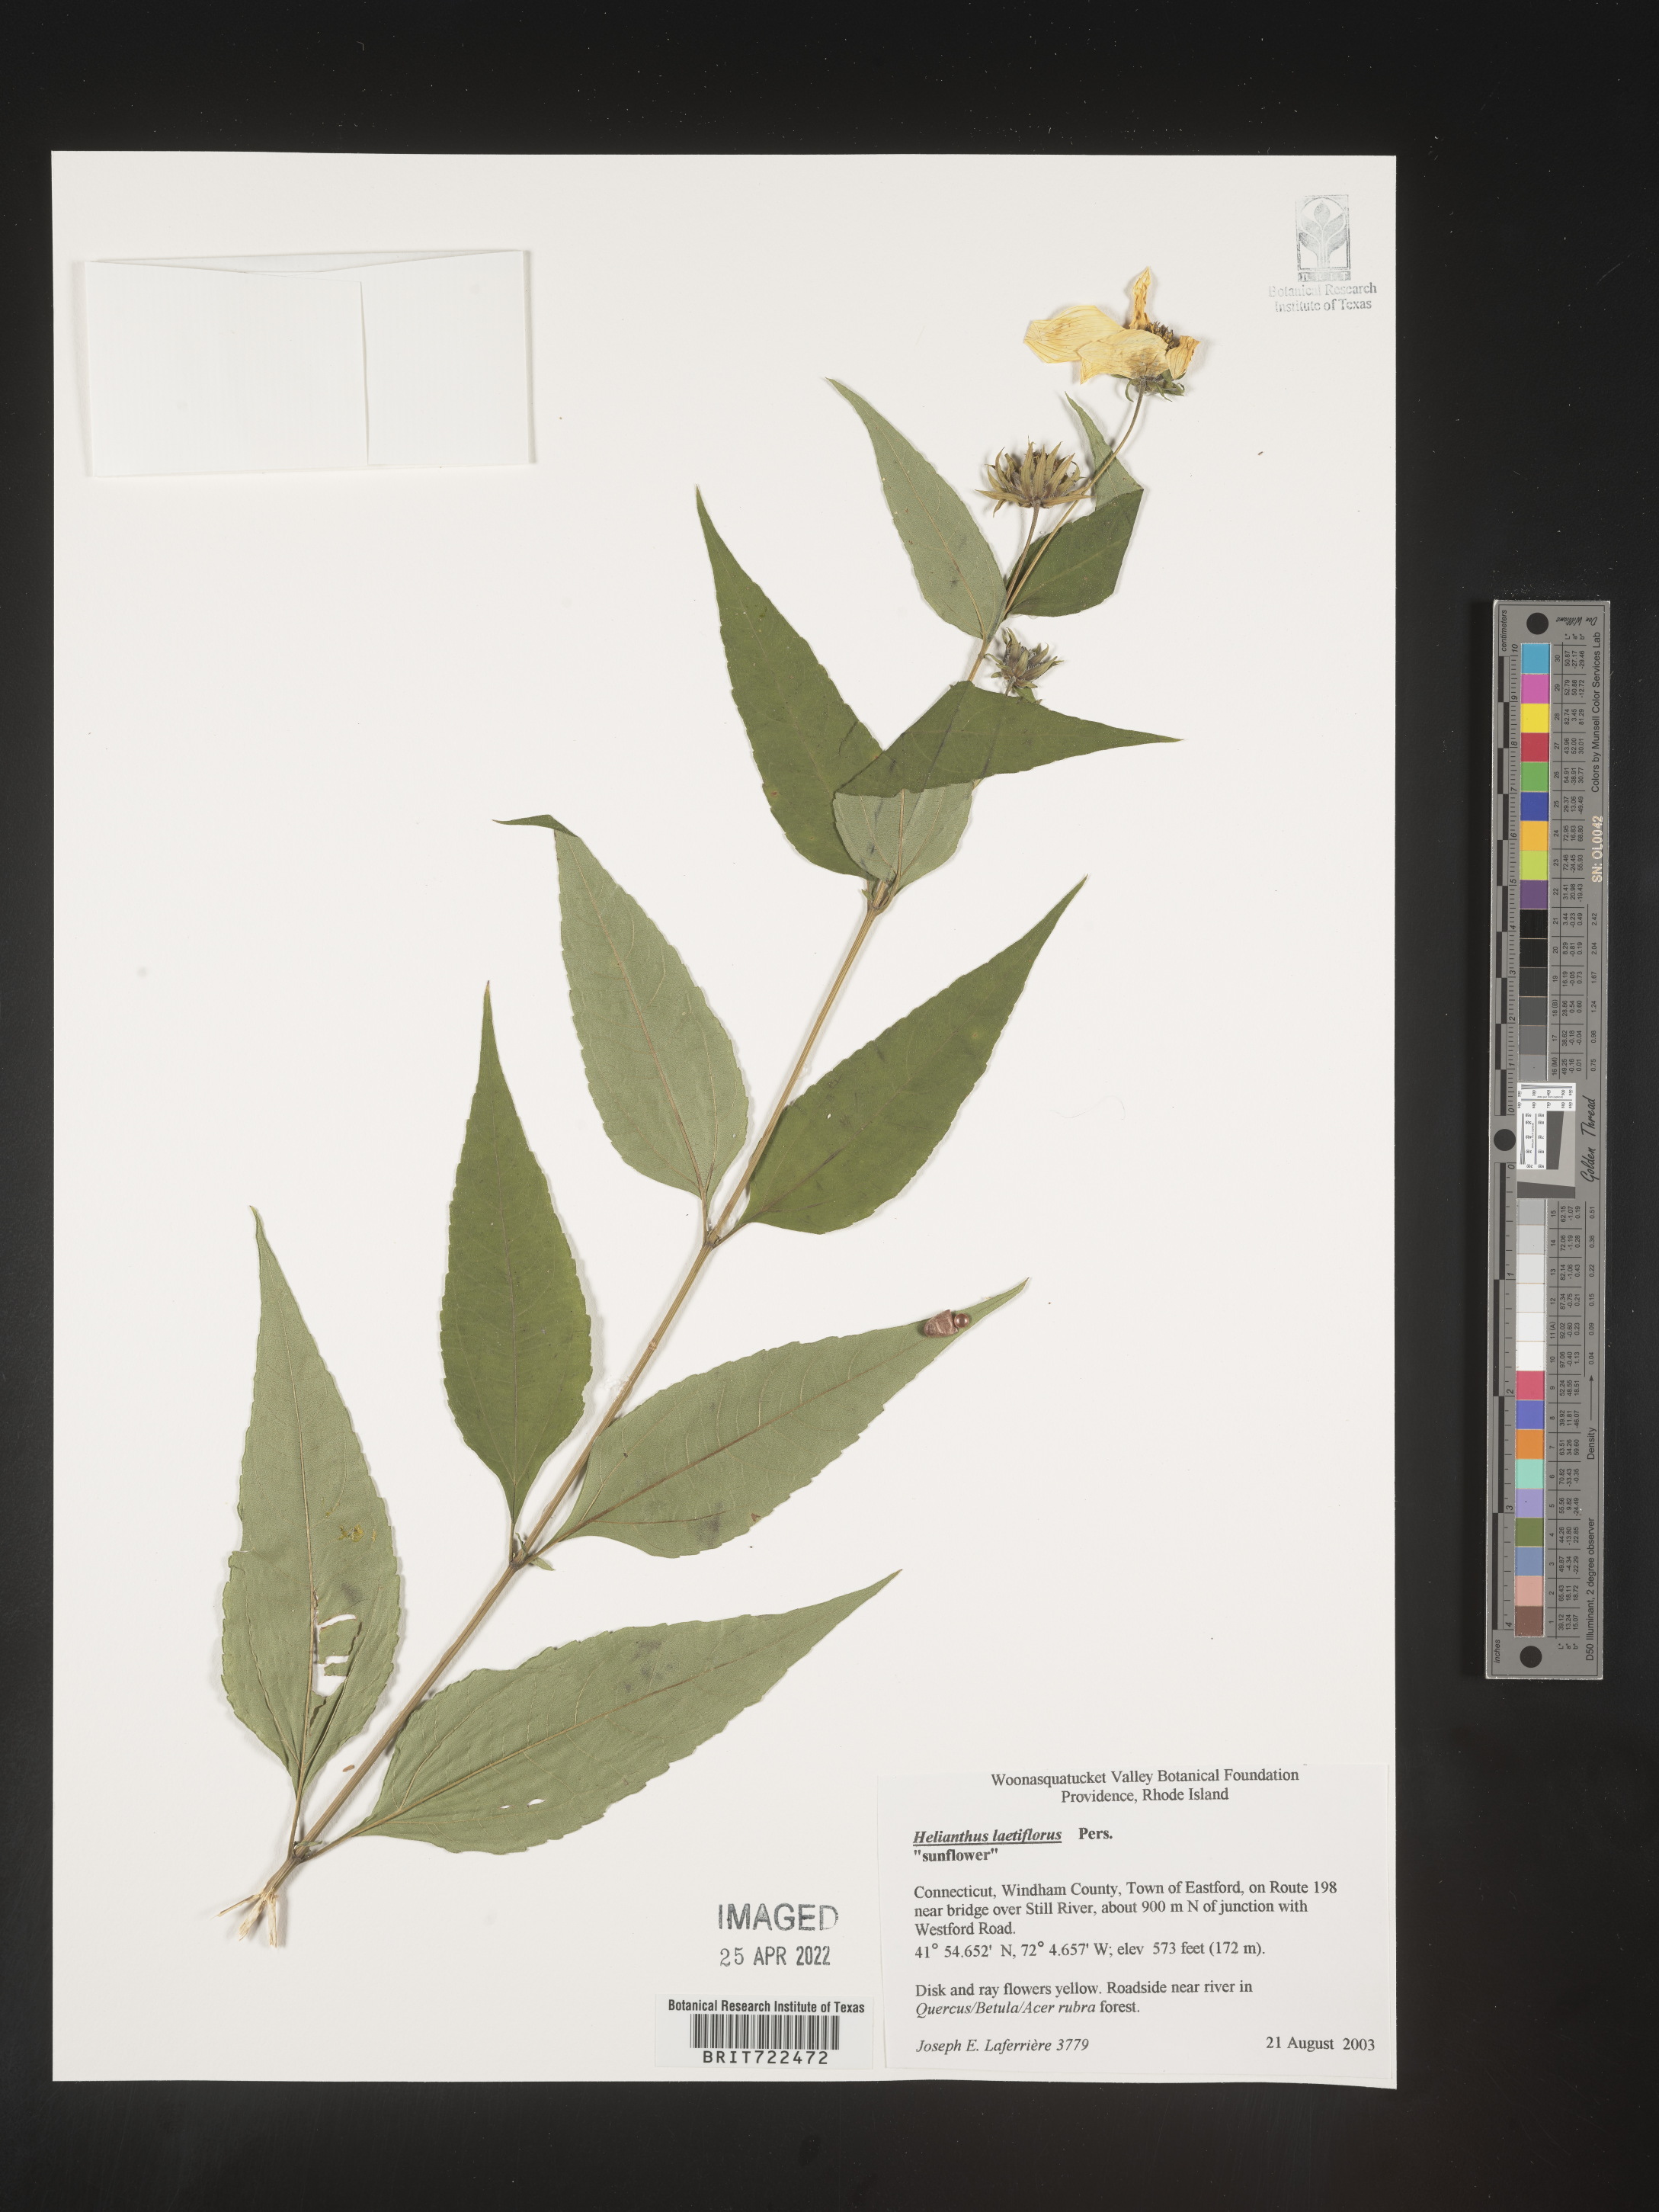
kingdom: Plantae
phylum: Tracheophyta
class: Magnoliopsida
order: Asterales
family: Asteraceae
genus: Helianthus
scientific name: Helianthus laetiflorus
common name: Perennial sunflower
